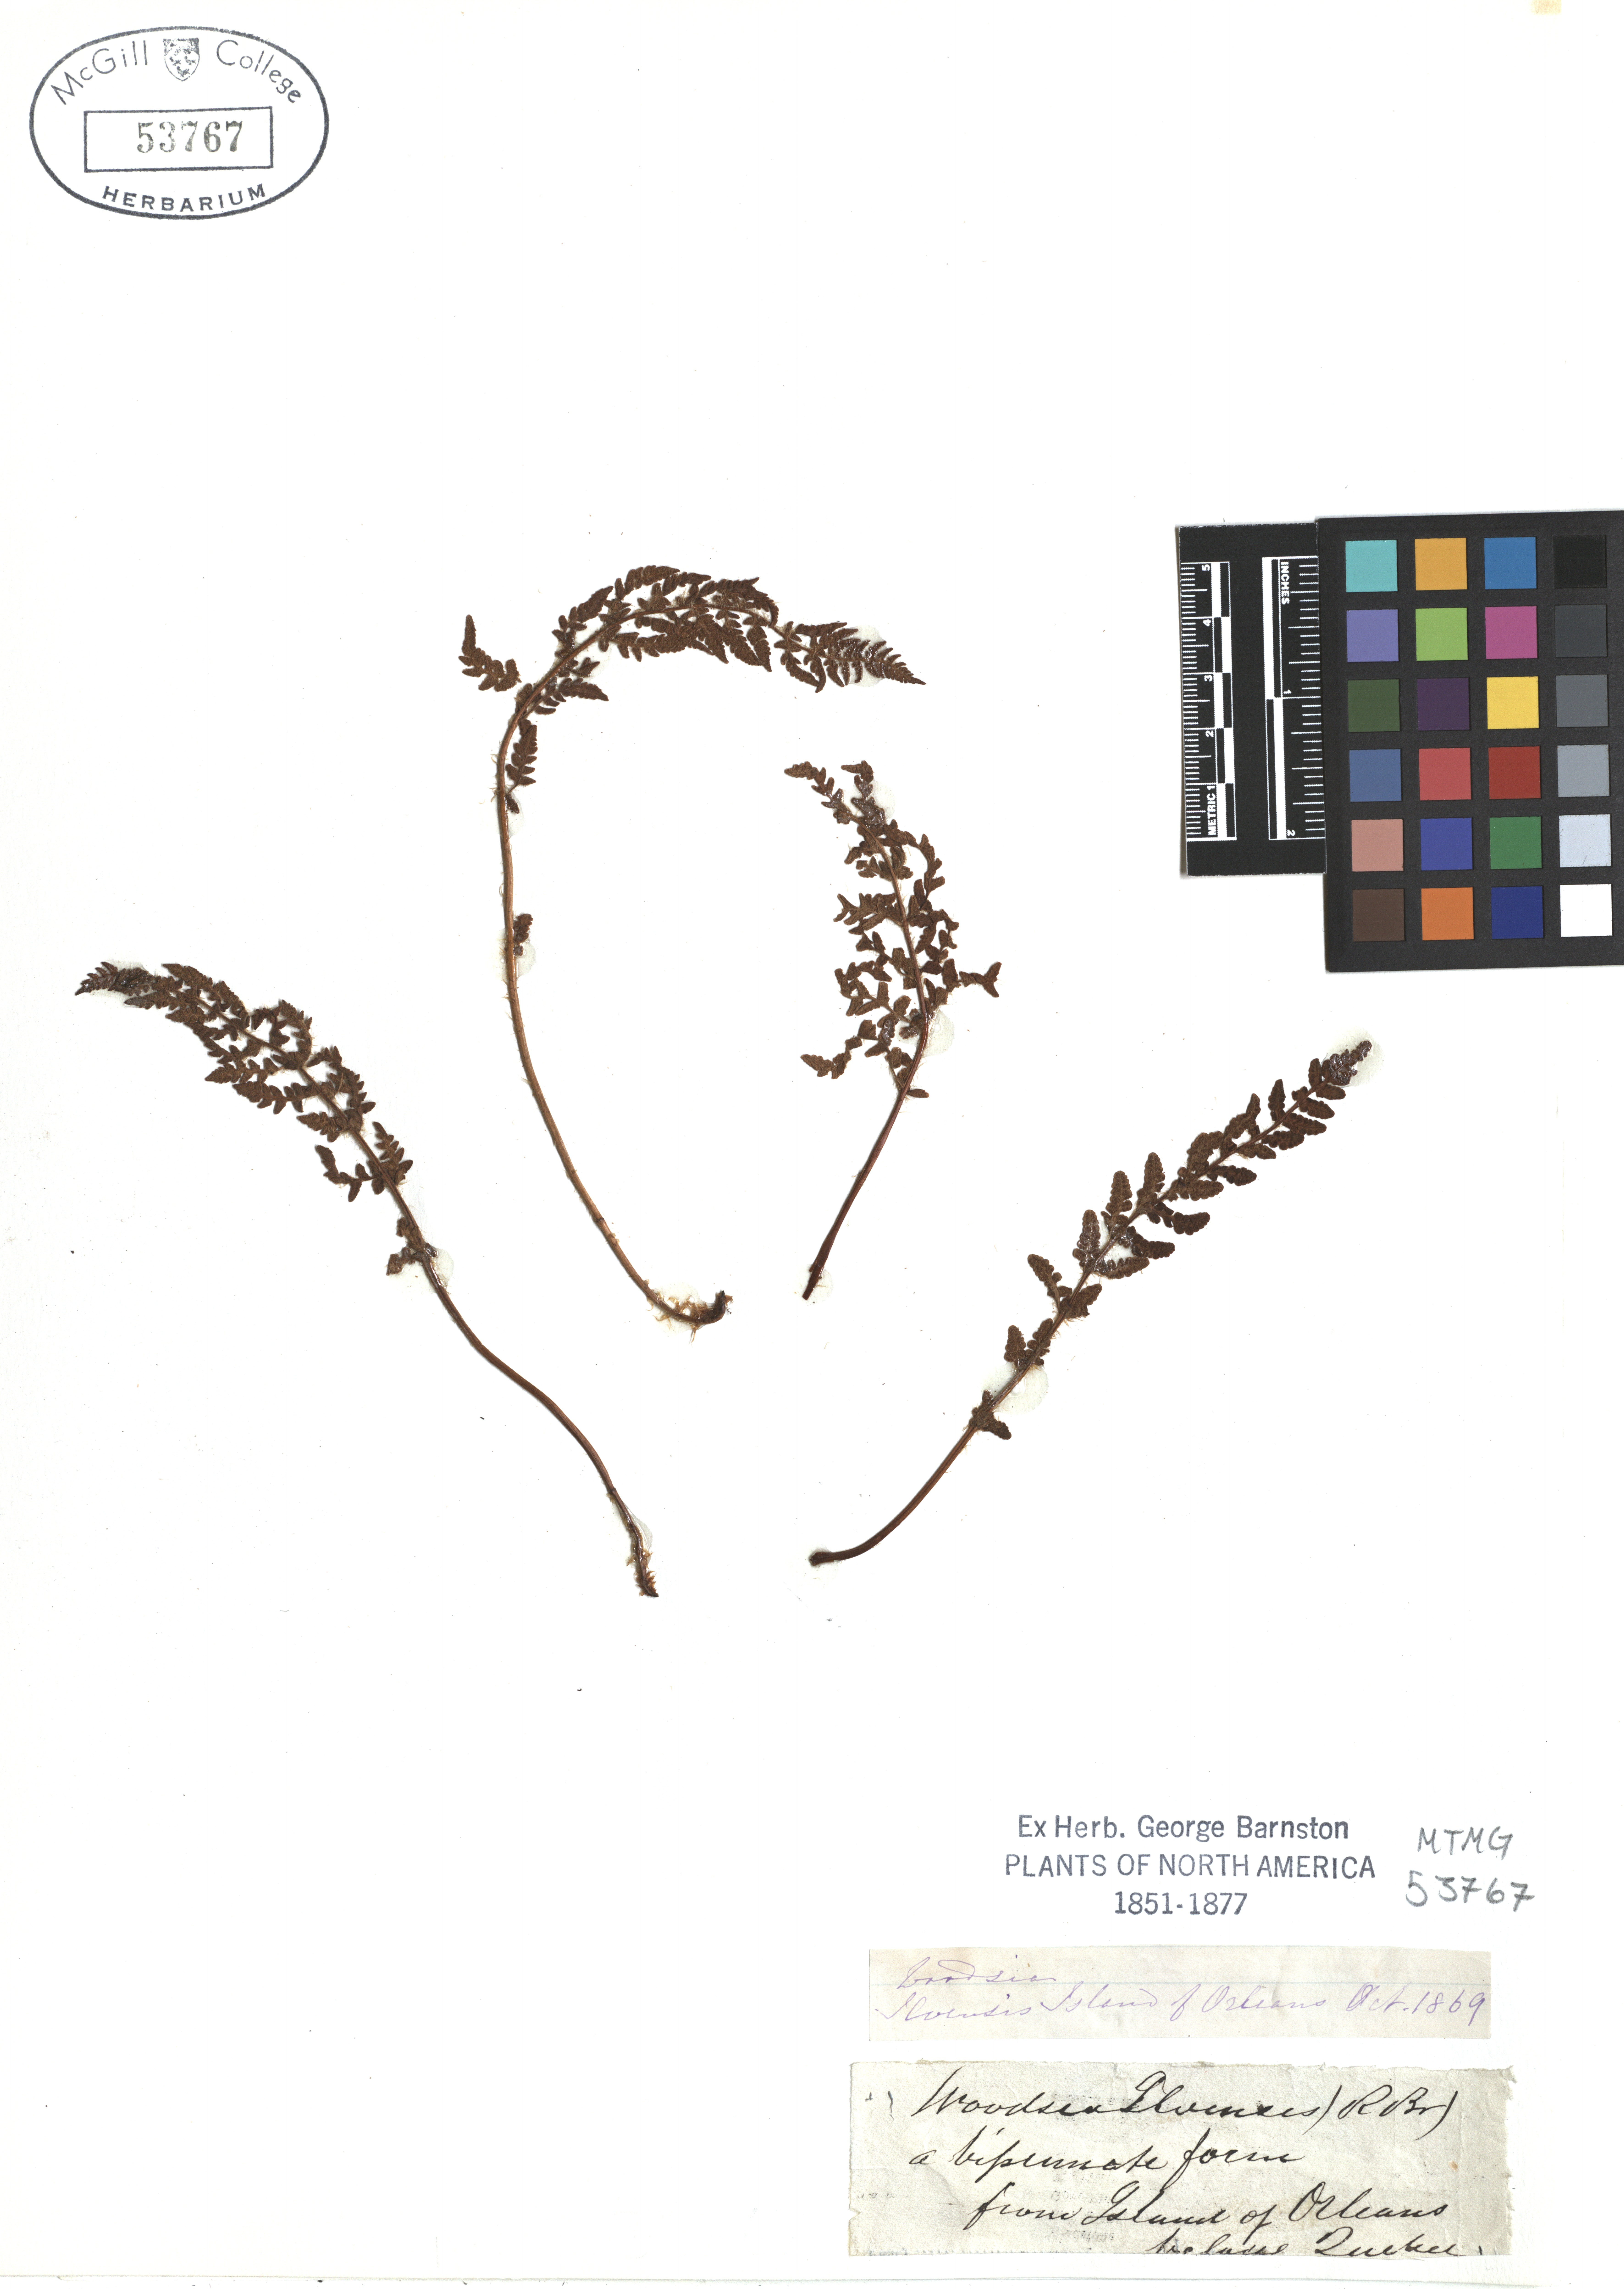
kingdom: Plantae
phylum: Tracheophyta
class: Polypodiopsida
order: Polypodiales
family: Woodsiaceae
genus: Woodsia
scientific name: Woodsia ilvensis
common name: Fragrant woodsia
